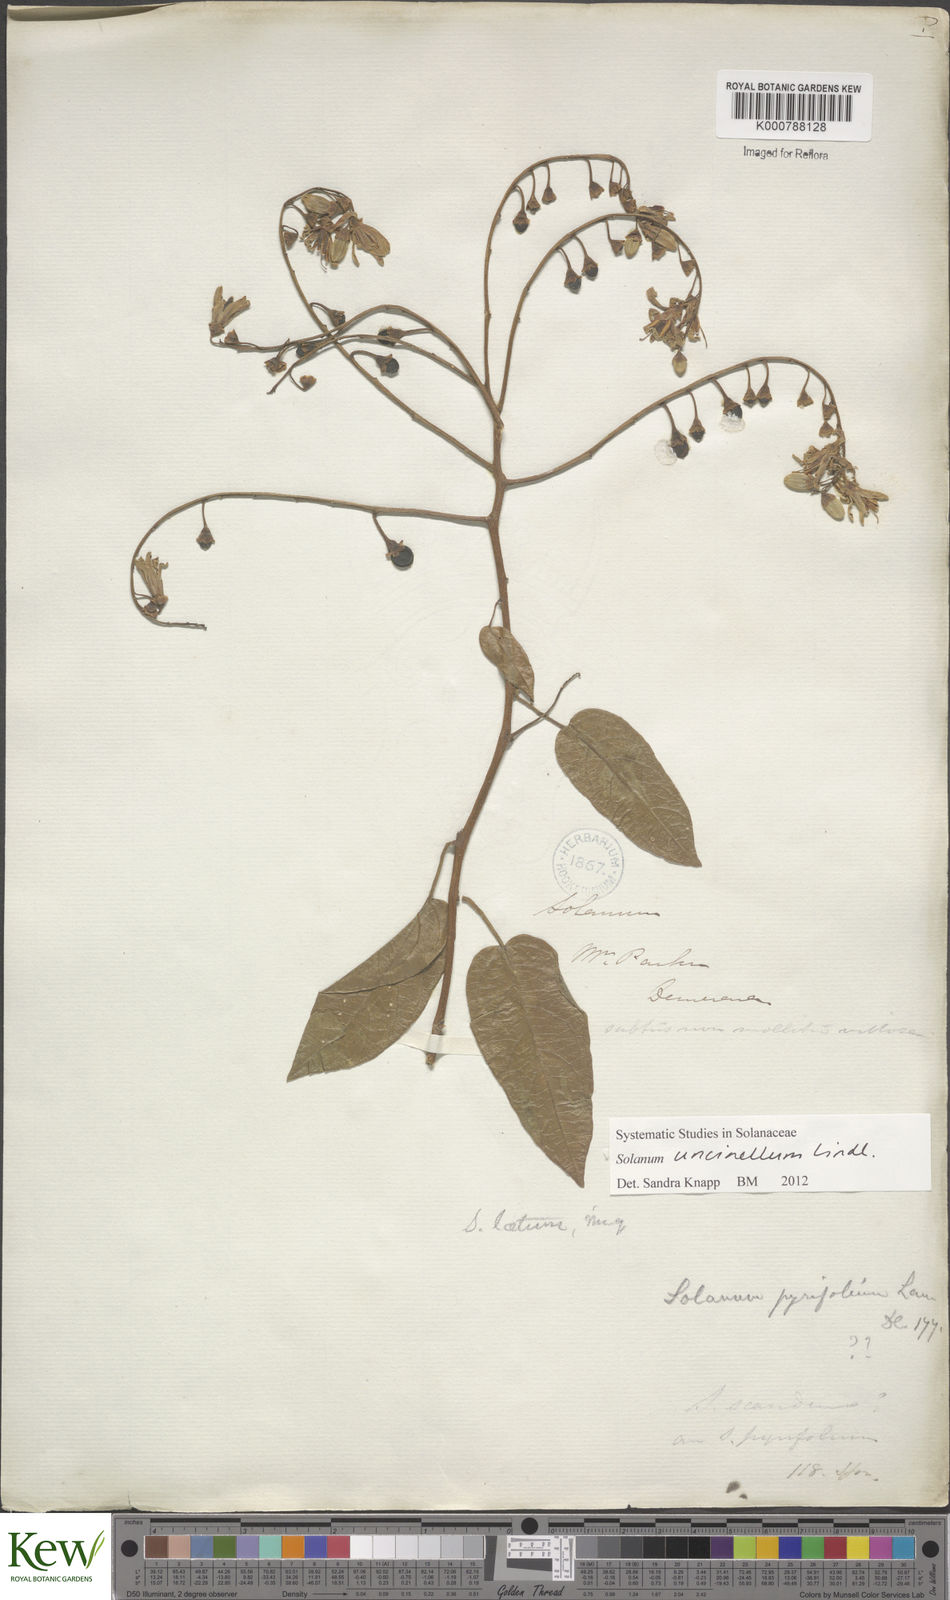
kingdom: Plantae
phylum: Tracheophyta
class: Magnoliopsida
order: Solanales
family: Solanaceae
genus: Solanum
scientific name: Solanum uncinellum
